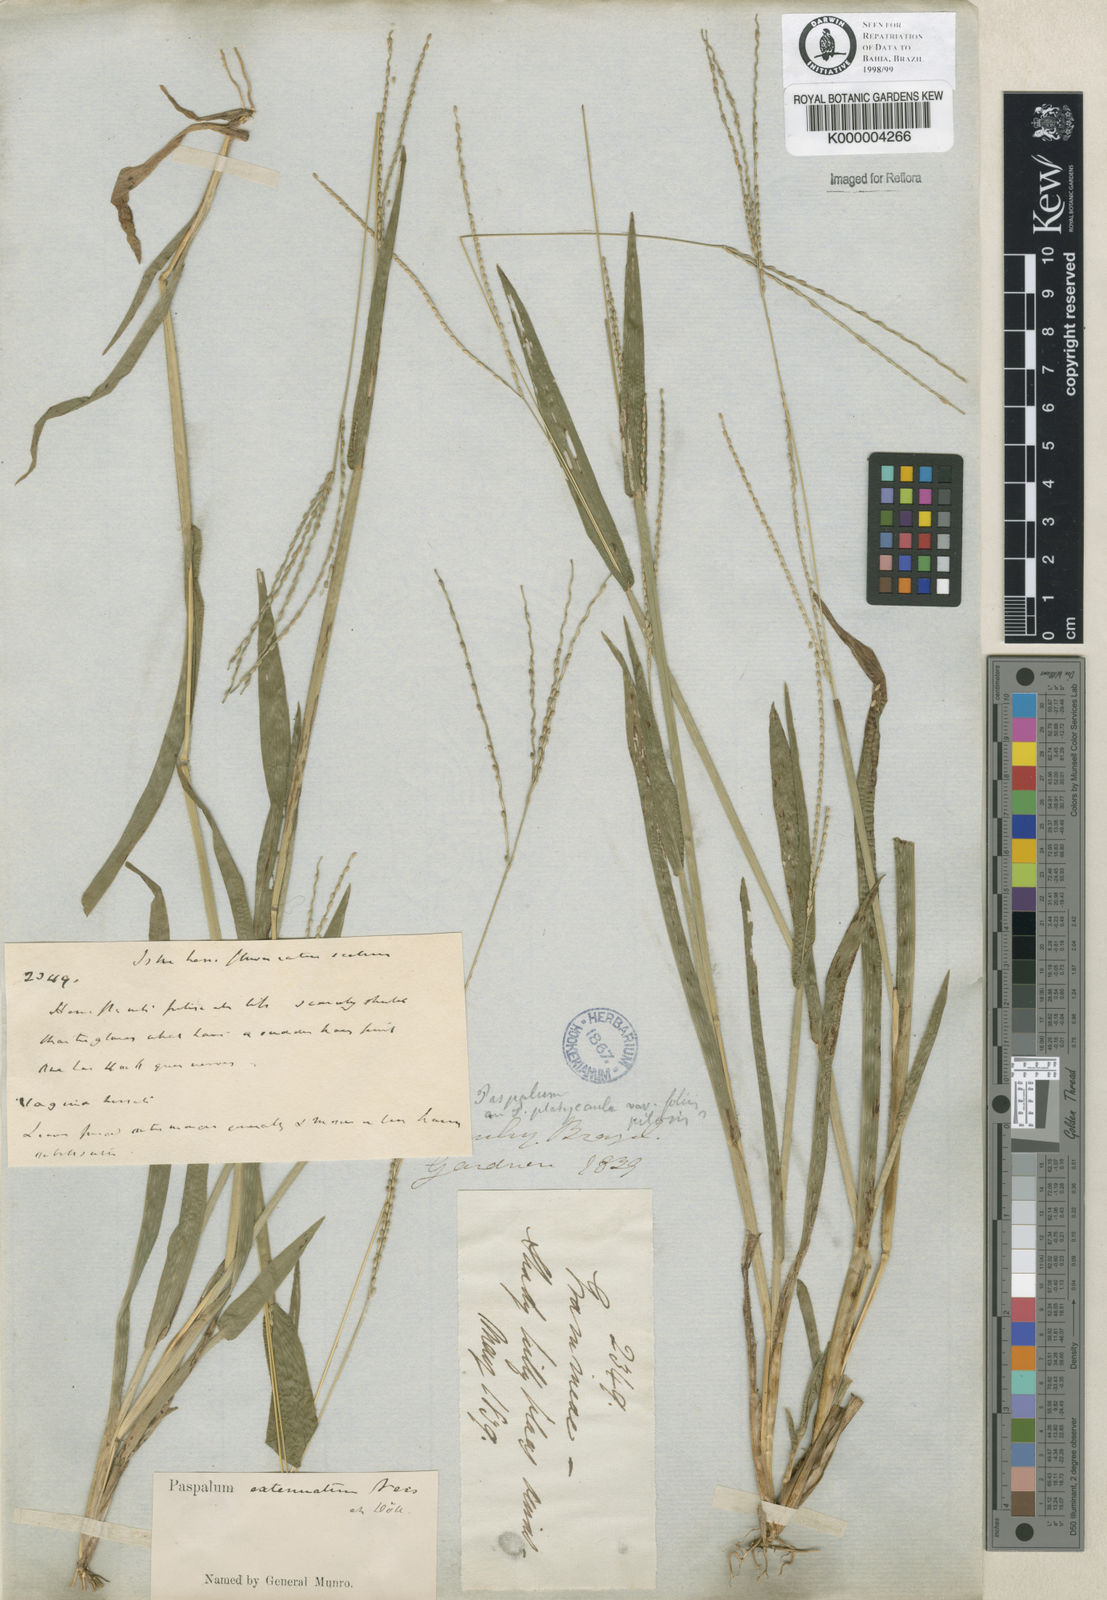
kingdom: Plantae
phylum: Tracheophyta
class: Liliopsida
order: Poales
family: Poaceae
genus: Axonopus
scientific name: Axonopus
